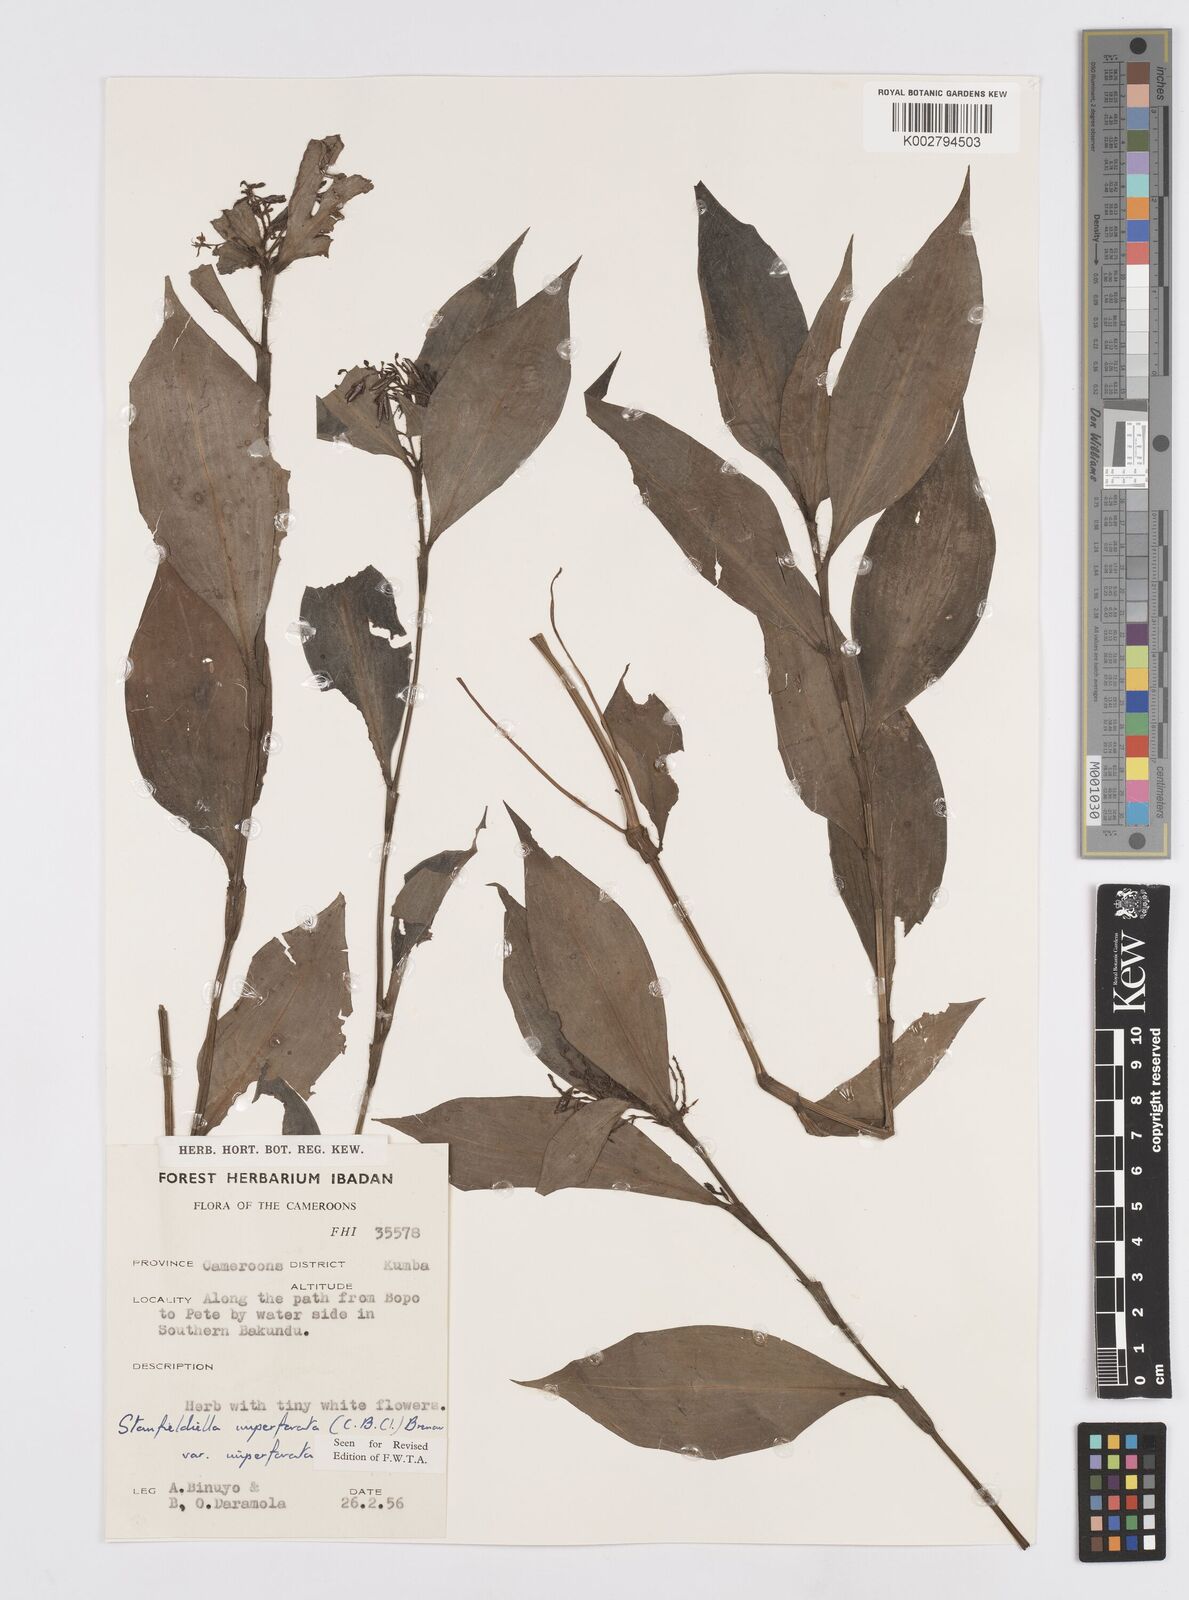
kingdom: Plantae
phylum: Tracheophyta
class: Liliopsida
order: Commelinales
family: Commelinaceae
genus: Stanfieldiella
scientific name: Stanfieldiella imperforata
